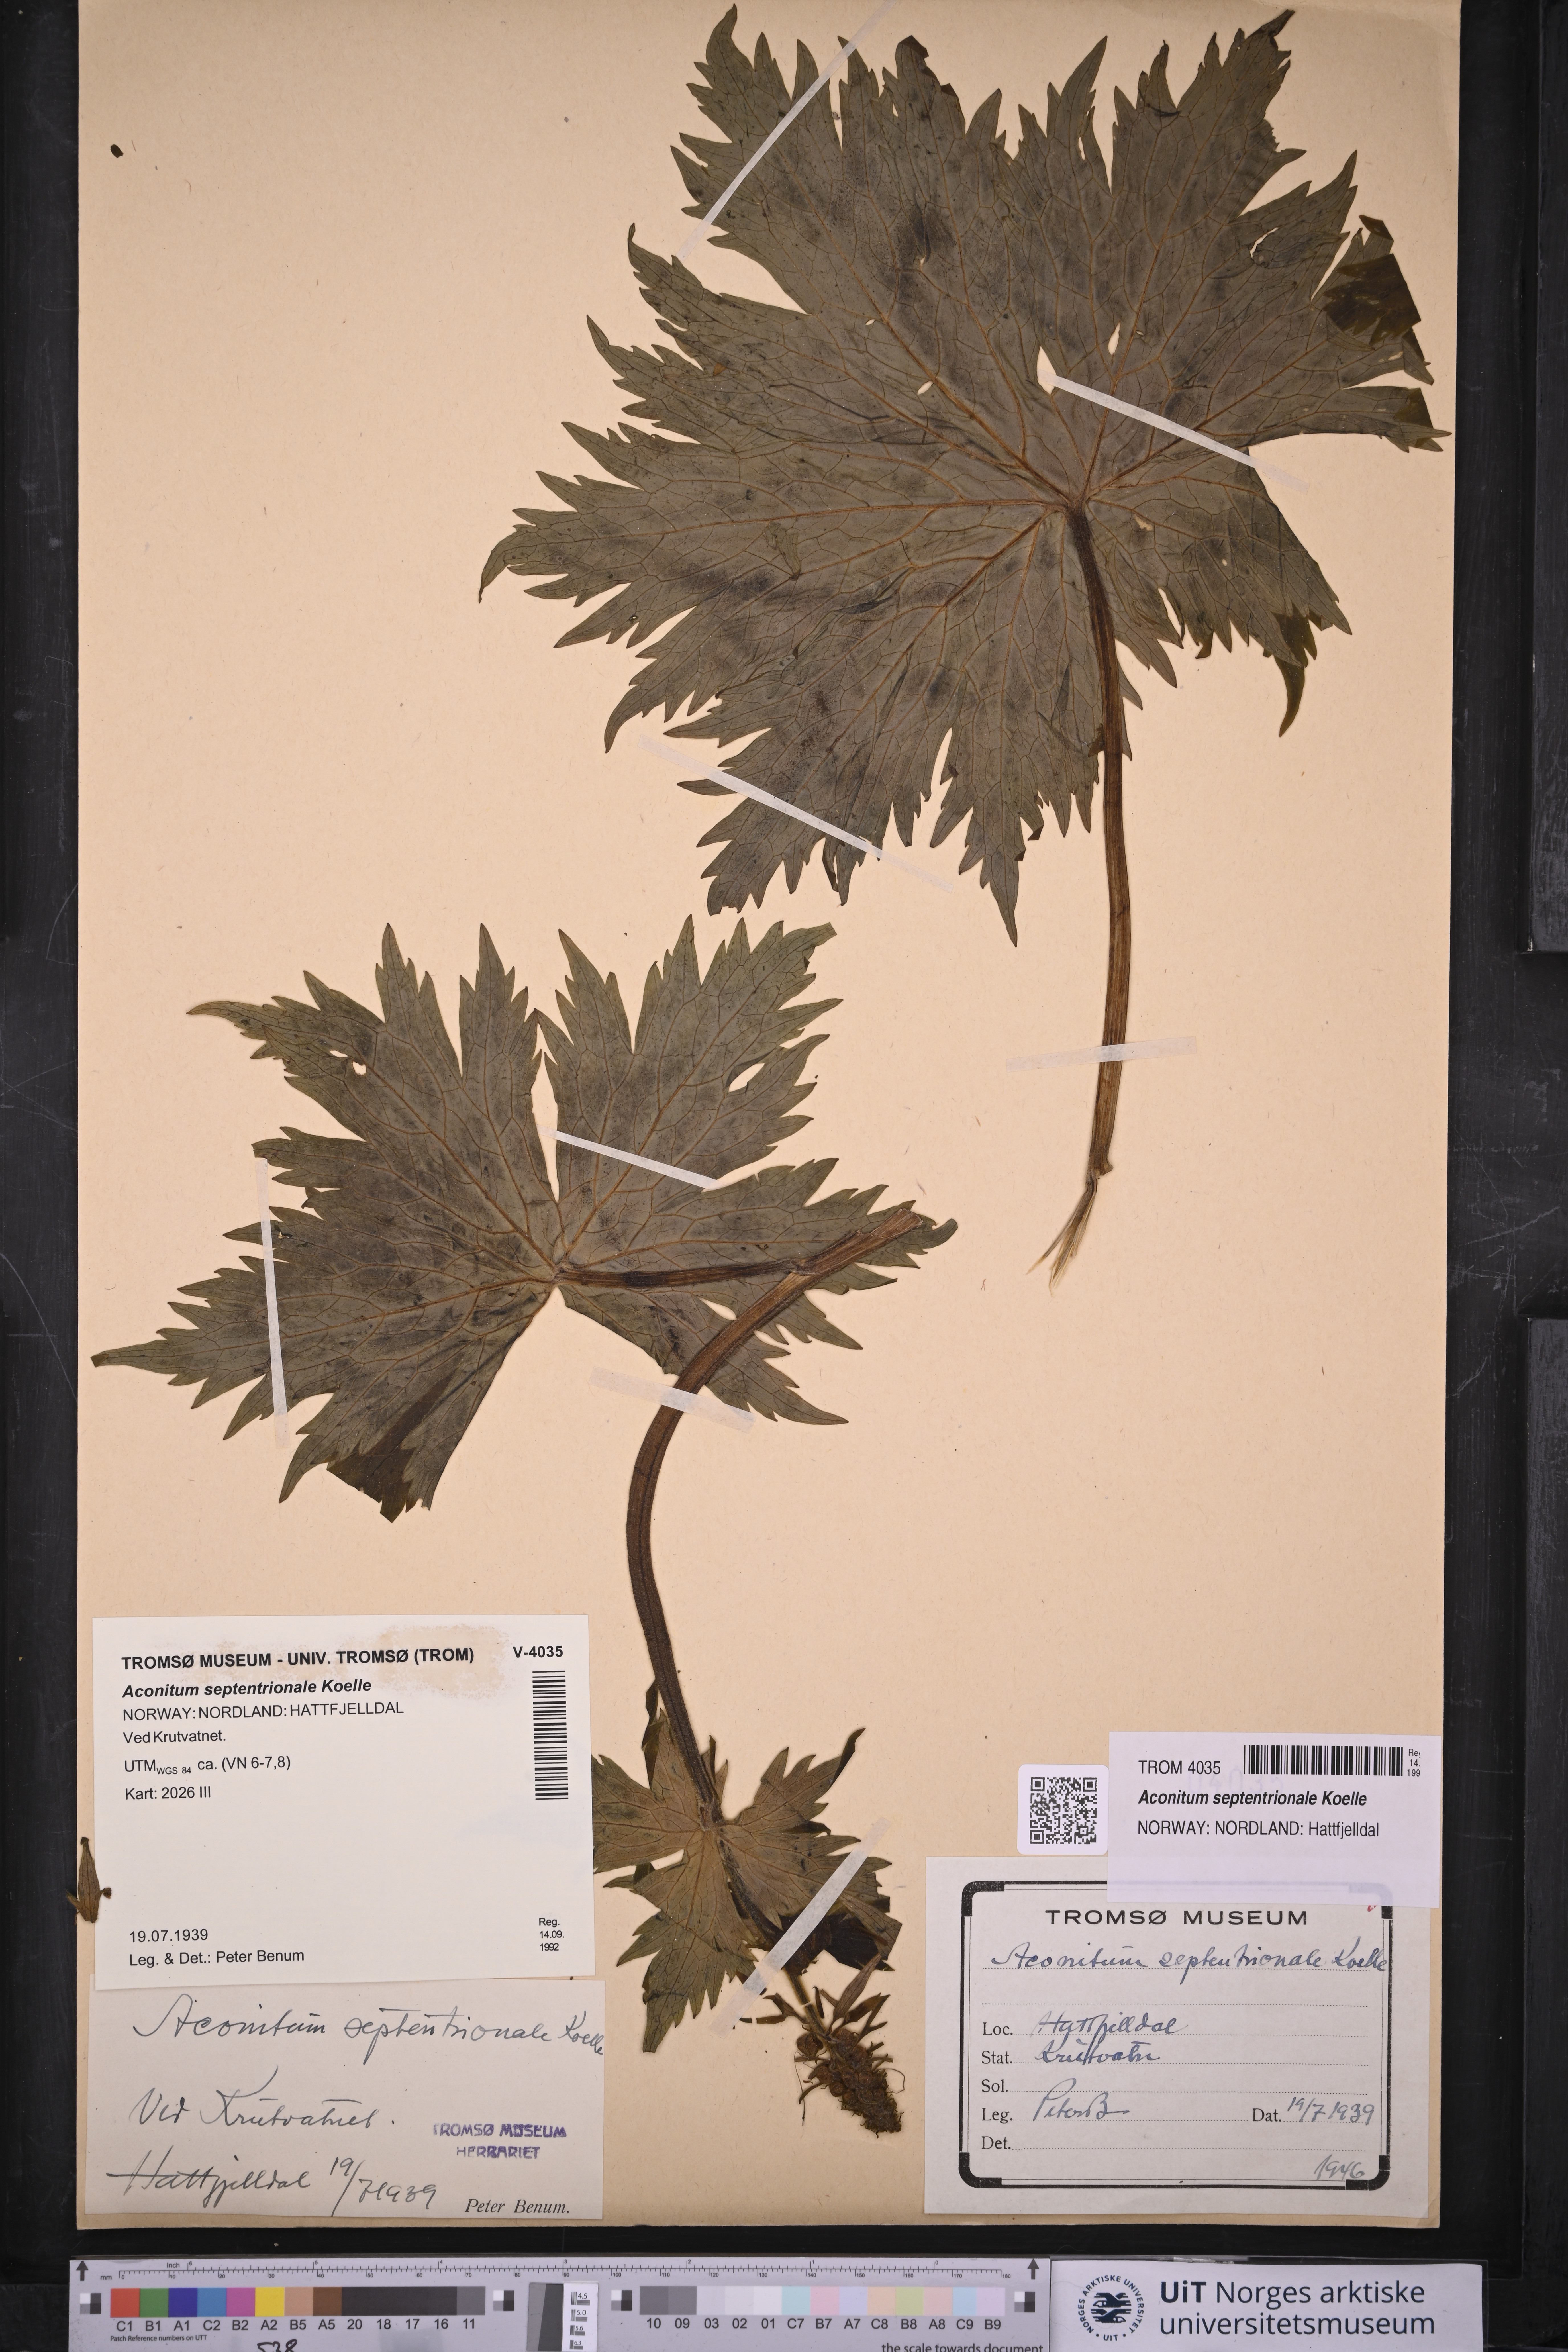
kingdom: Plantae
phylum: Tracheophyta
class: Magnoliopsida
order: Ranunculales
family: Ranunculaceae
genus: Aconitum
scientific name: Aconitum septentrionale
